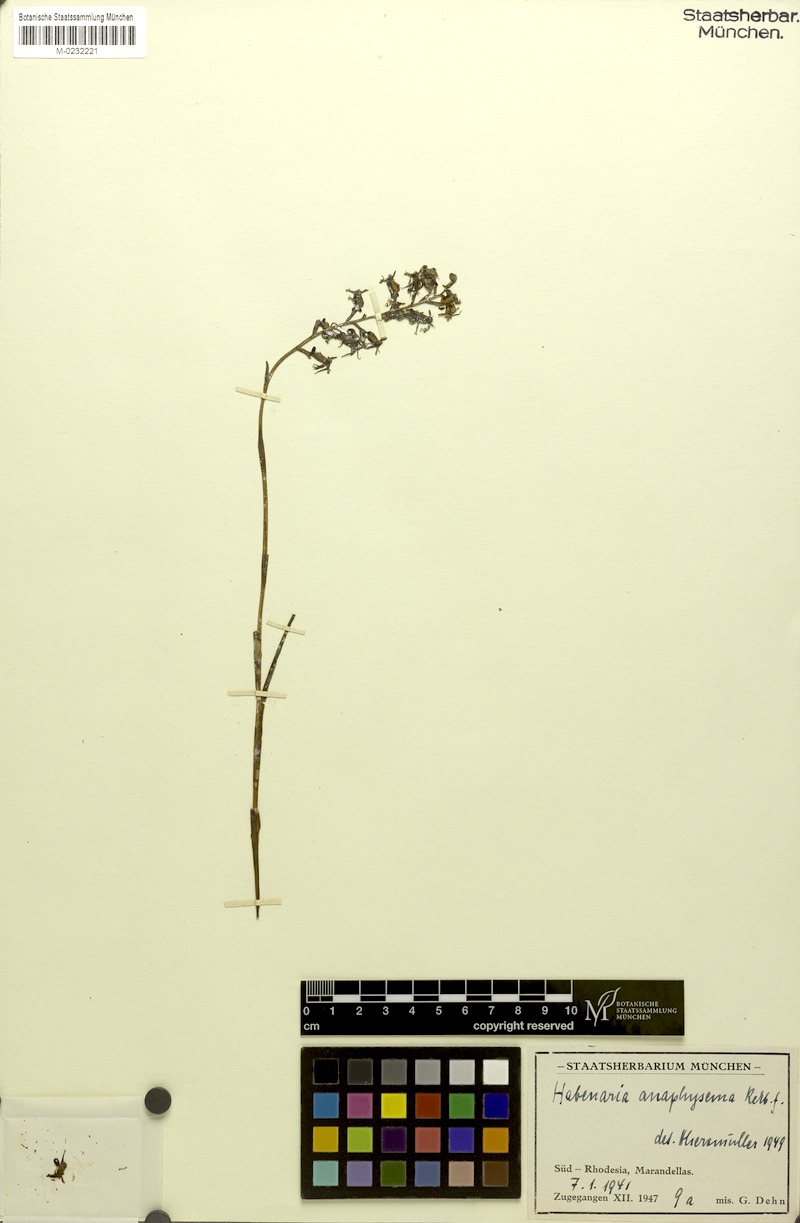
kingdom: Plantae
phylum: Tracheophyta
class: Liliopsida
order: Asparagales
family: Orchidaceae
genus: Habenaria
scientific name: Habenaria anaphysema
